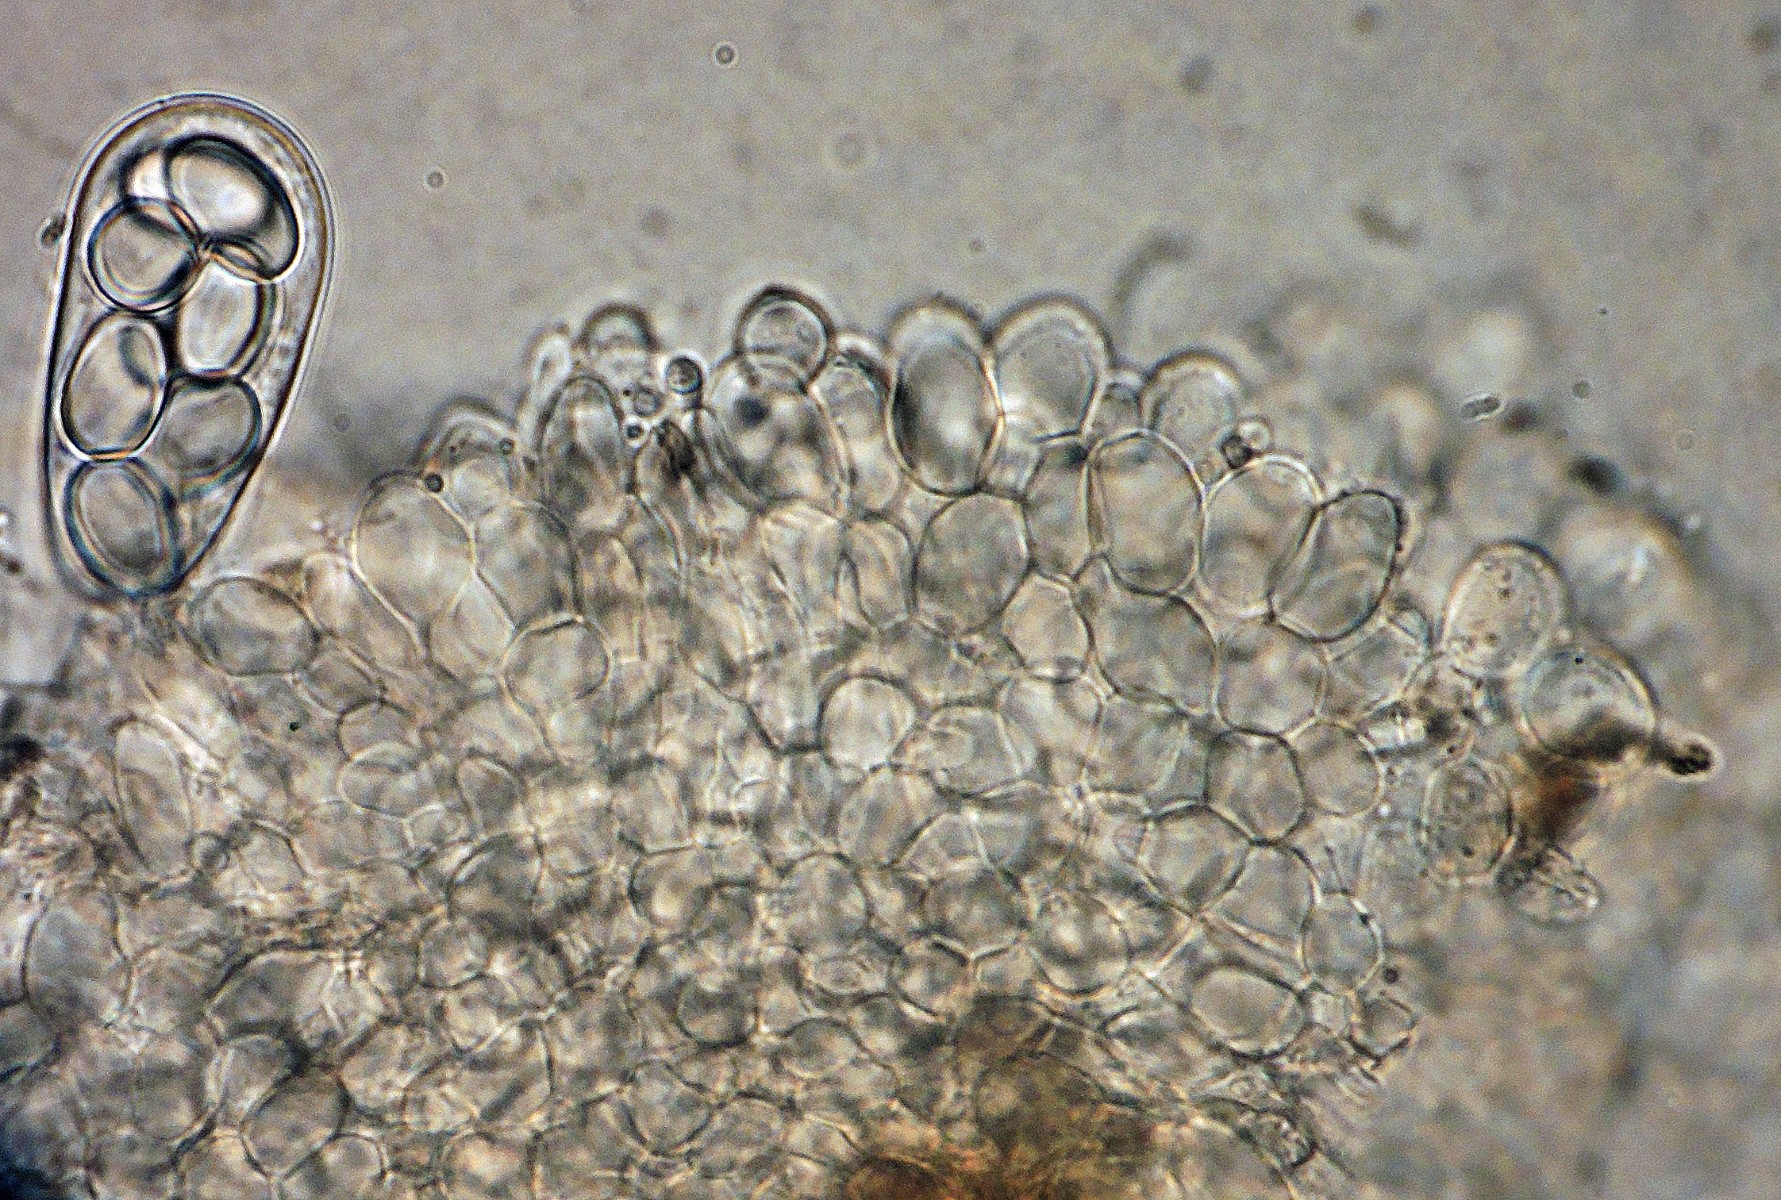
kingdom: Fungi
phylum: Ascomycota
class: Pezizomycetes
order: Pezizales
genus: Coprotus
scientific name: Coprotus granuliformis
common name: ballonsækket småbæger
